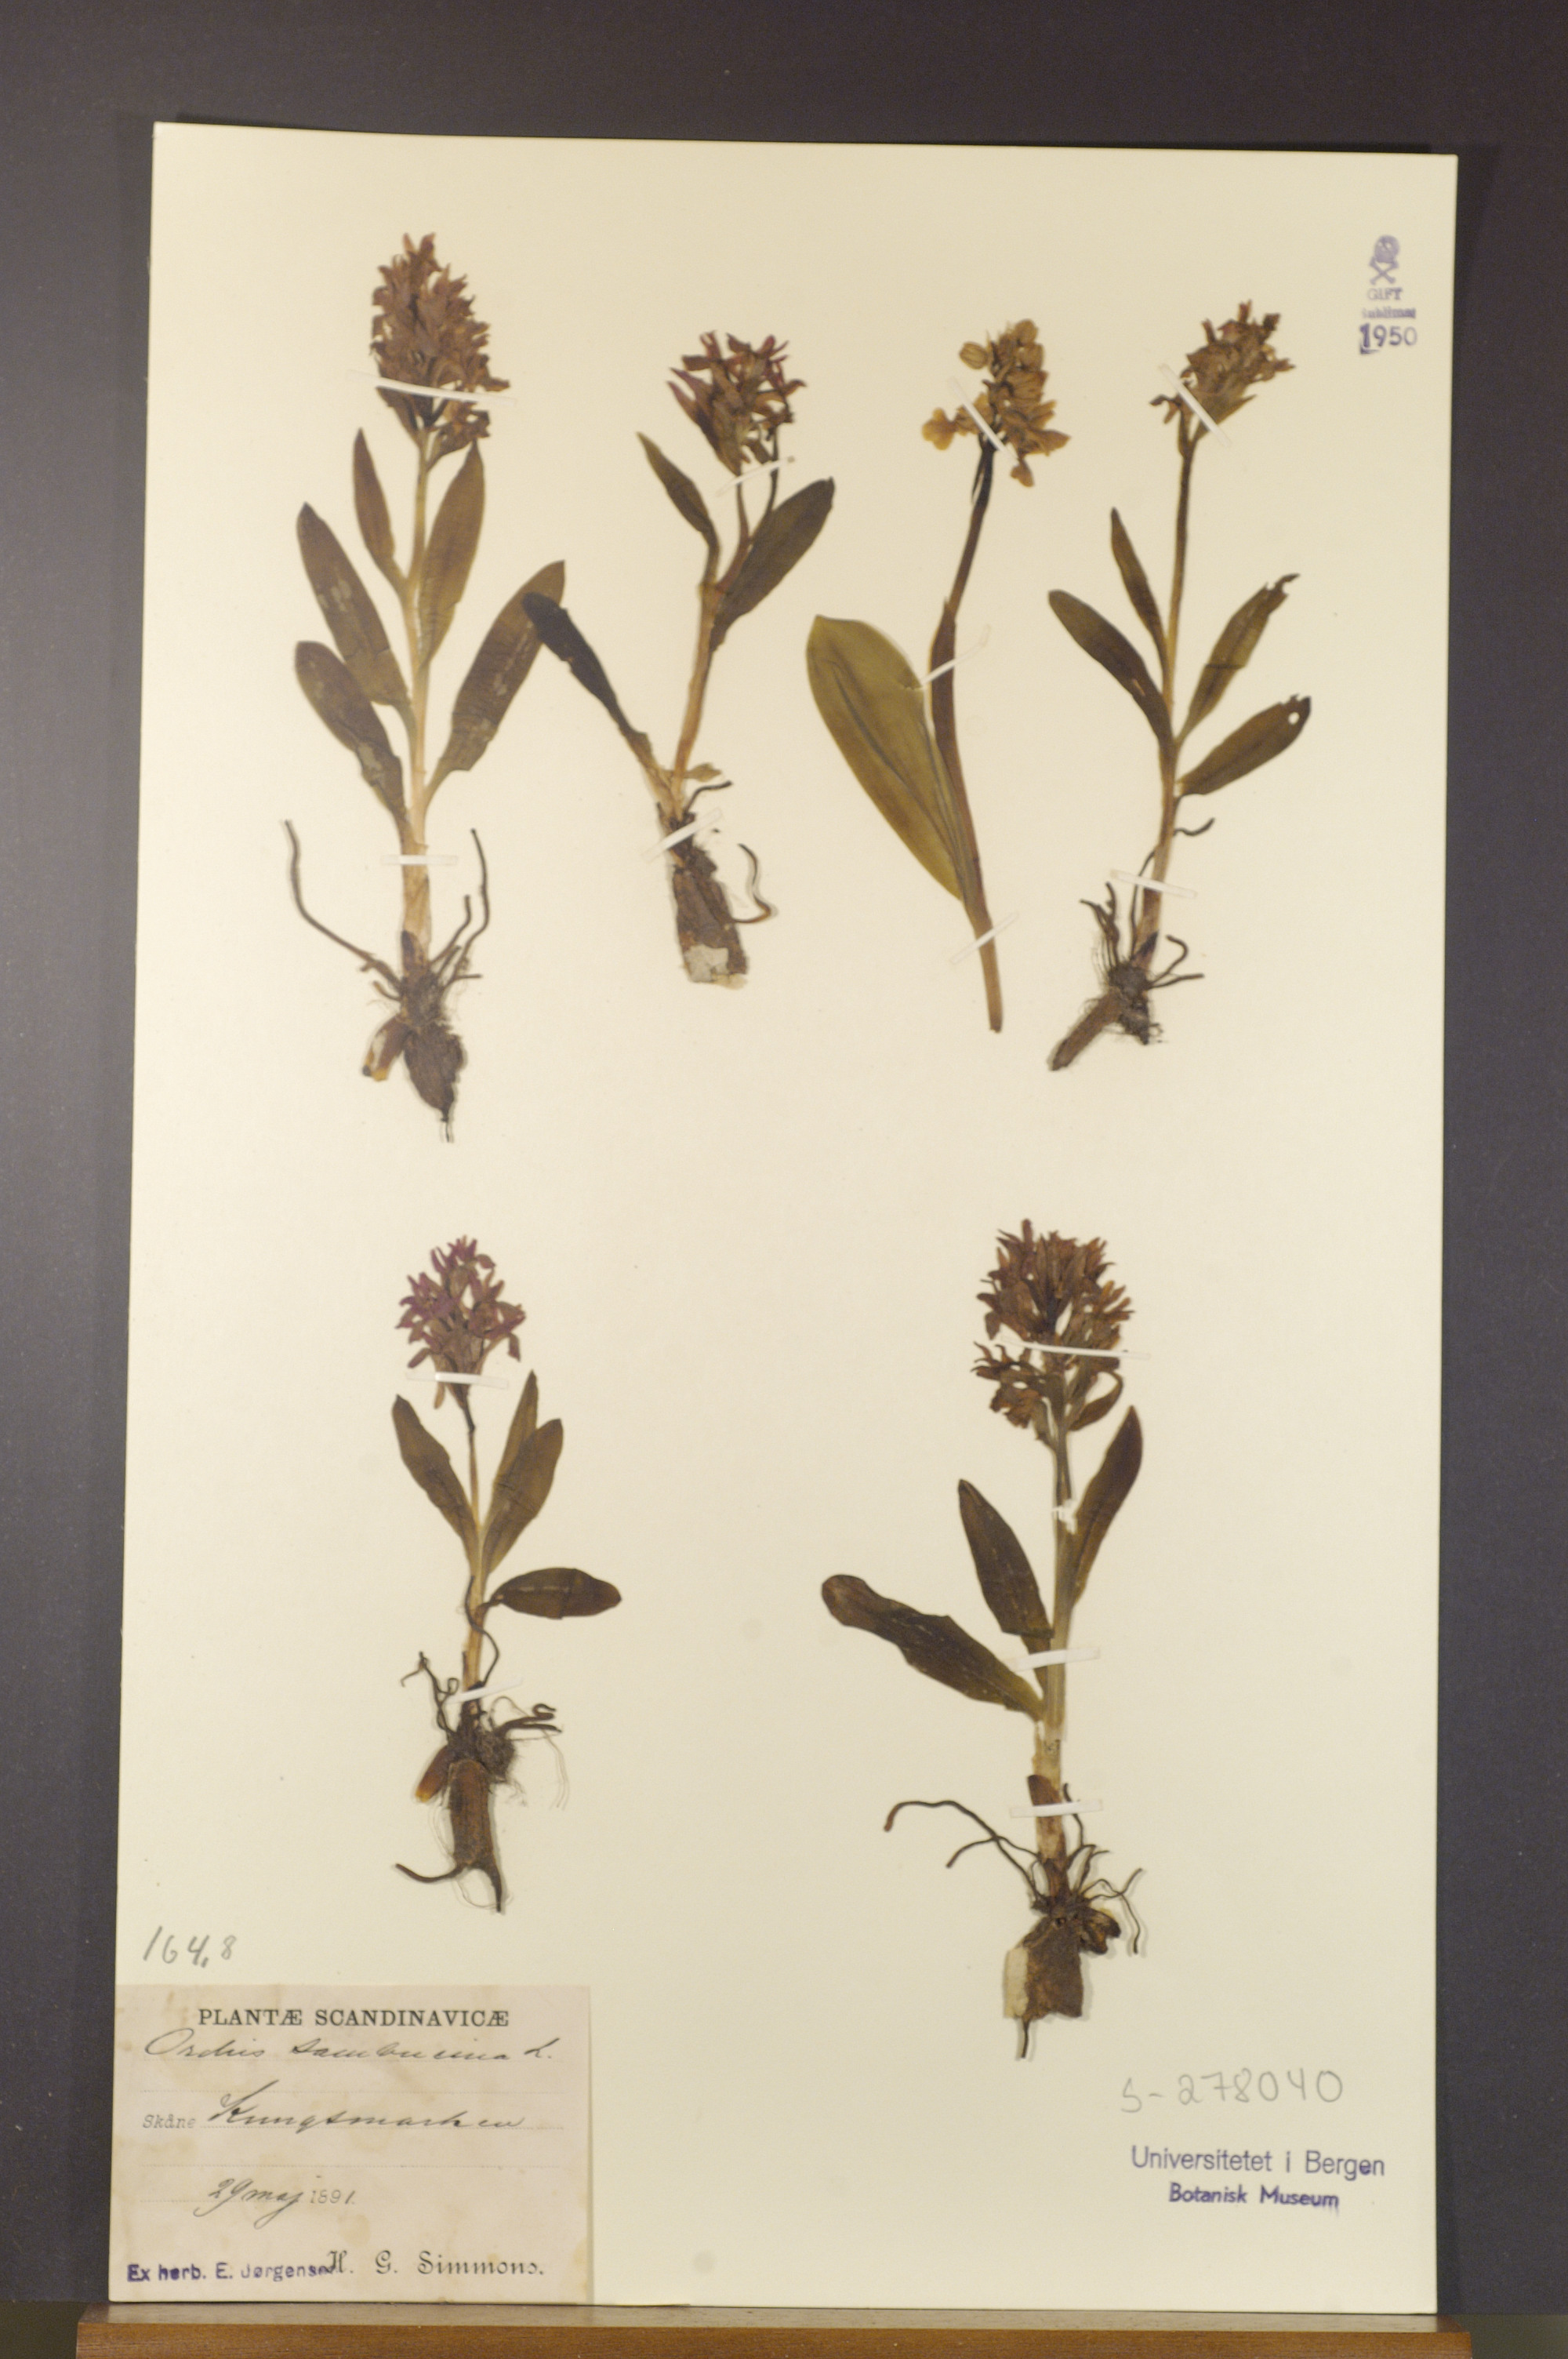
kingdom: Plantae
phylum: Tracheophyta
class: Liliopsida
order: Asparagales
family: Orchidaceae
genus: Dactylorhiza
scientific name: Dactylorhiza sambucina
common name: Elder-flowered orchid
